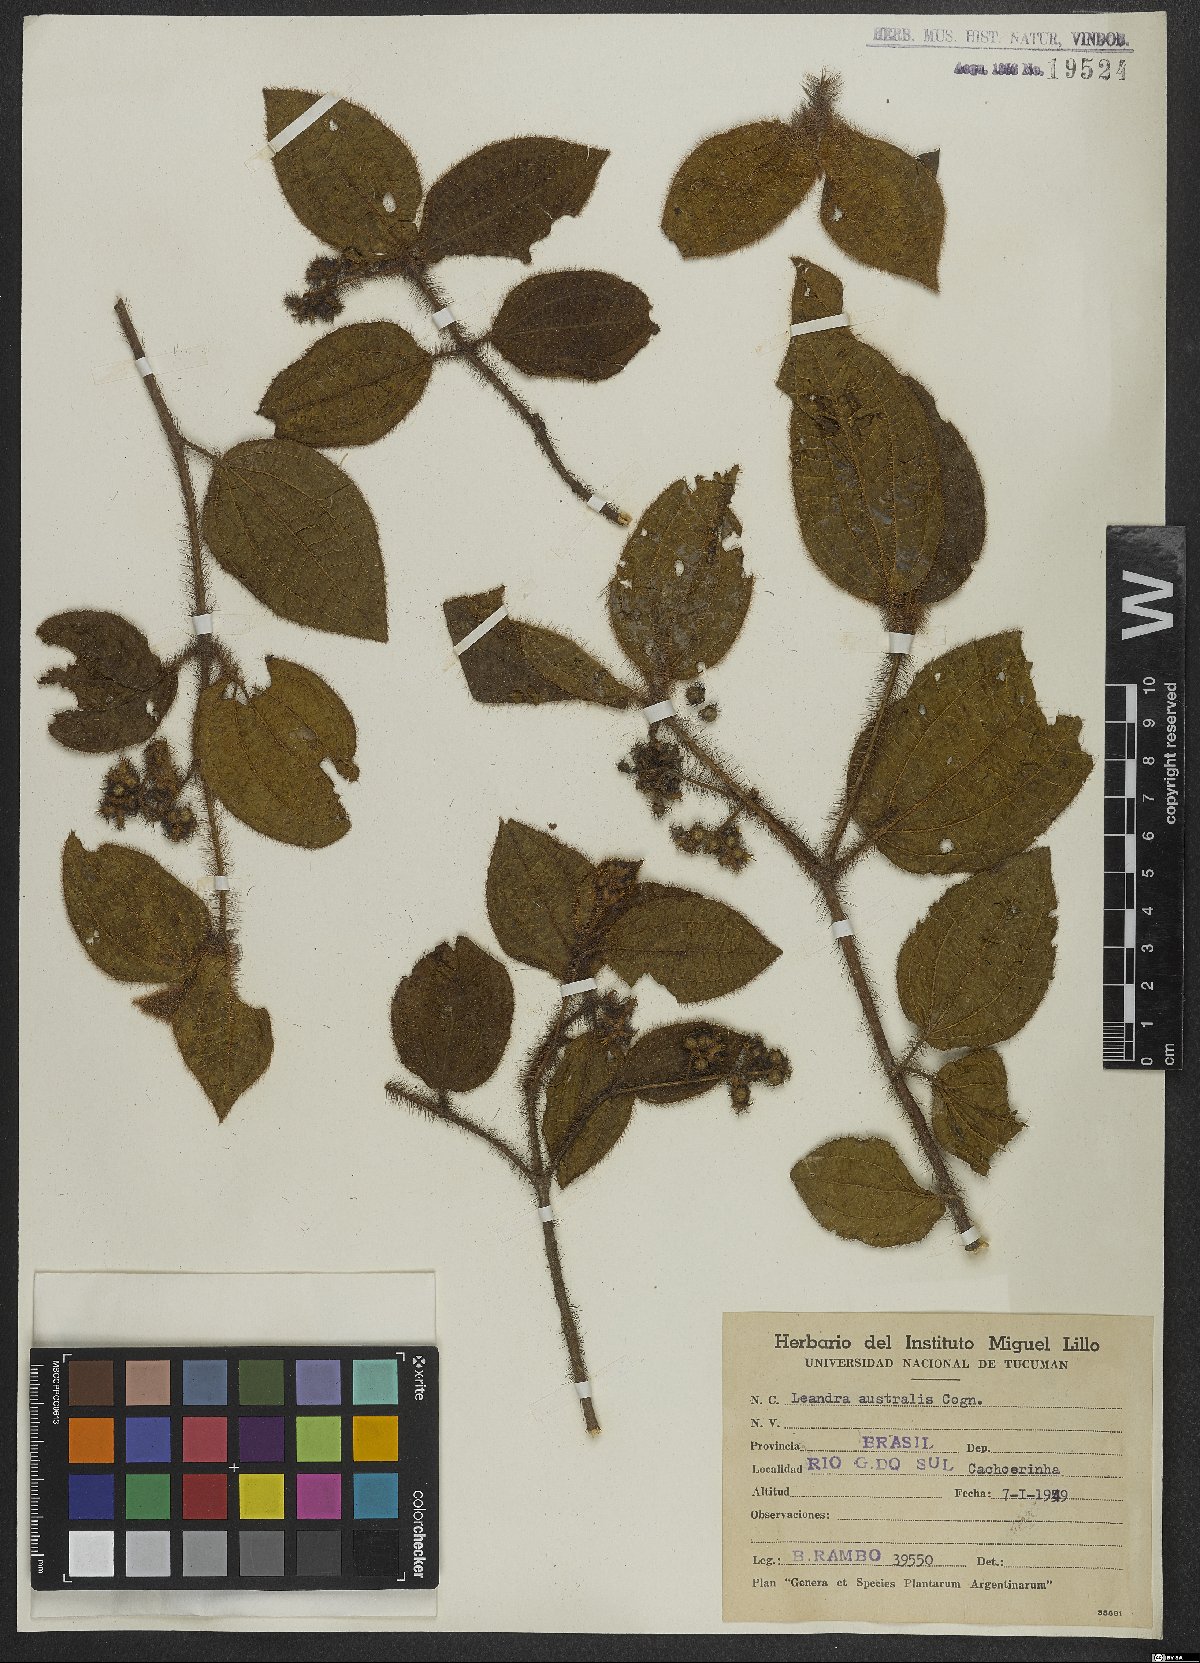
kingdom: Plantae
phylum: Tracheophyta
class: Magnoliopsida
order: Myrtales
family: Melastomataceae
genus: Miconia
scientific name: Miconia australis
